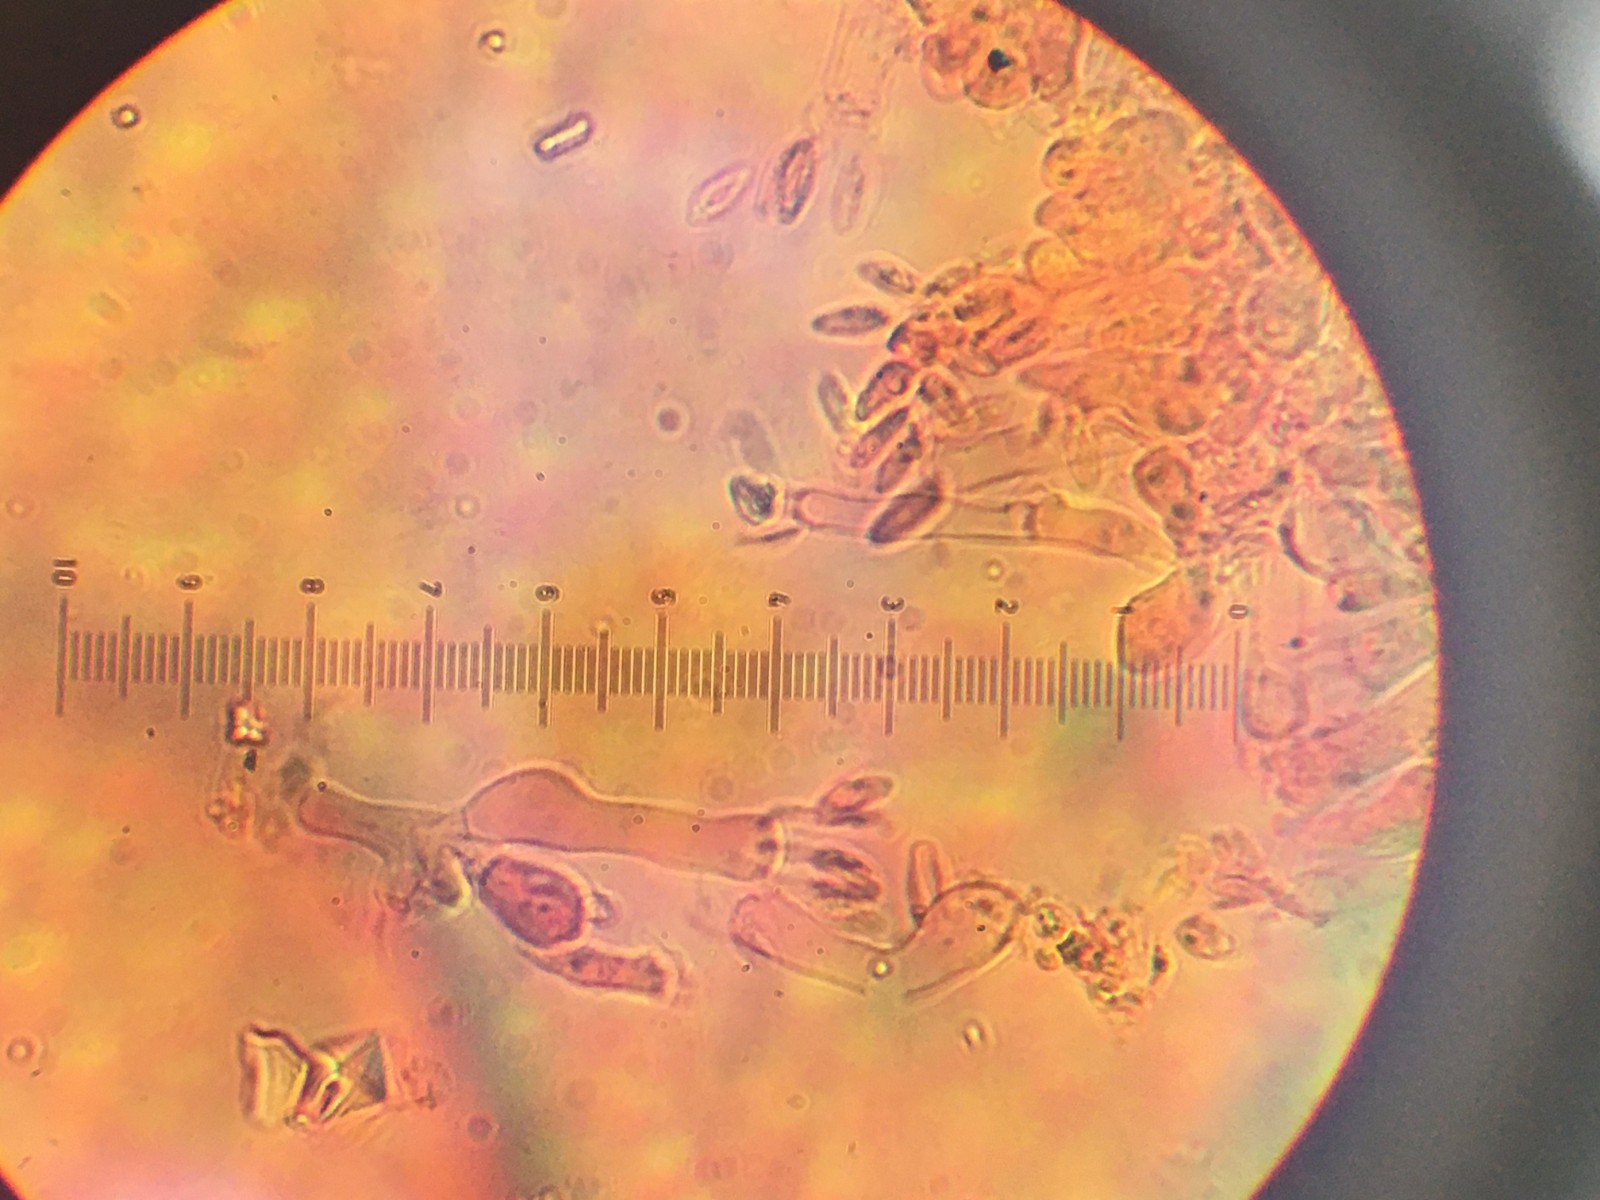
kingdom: Fungi
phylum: Basidiomycota
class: Agaricomycetes
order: Cantharellales
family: Hydnaceae
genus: Sistotrema
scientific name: Sistotrema raduloides
